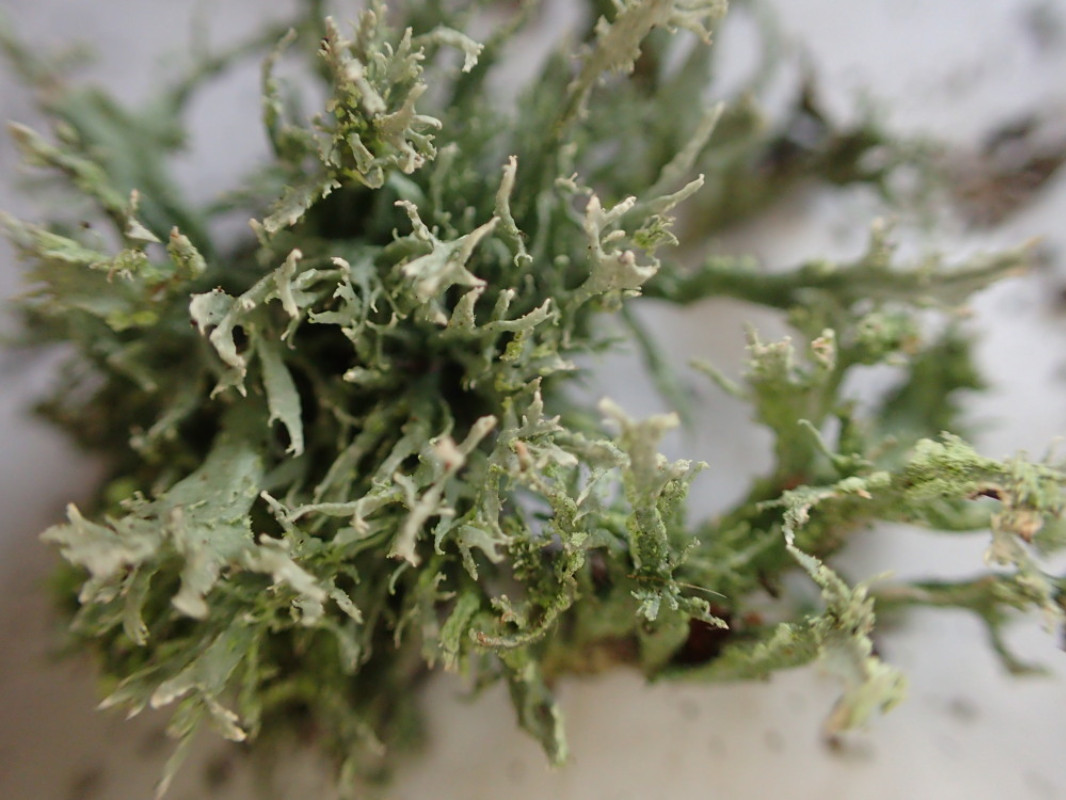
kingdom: Fungi
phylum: Ascomycota
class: Lecanoromycetes
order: Lecanorales
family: Ramalinaceae
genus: Ramalina
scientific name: Ramalina farinacea
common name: melet grenlav
